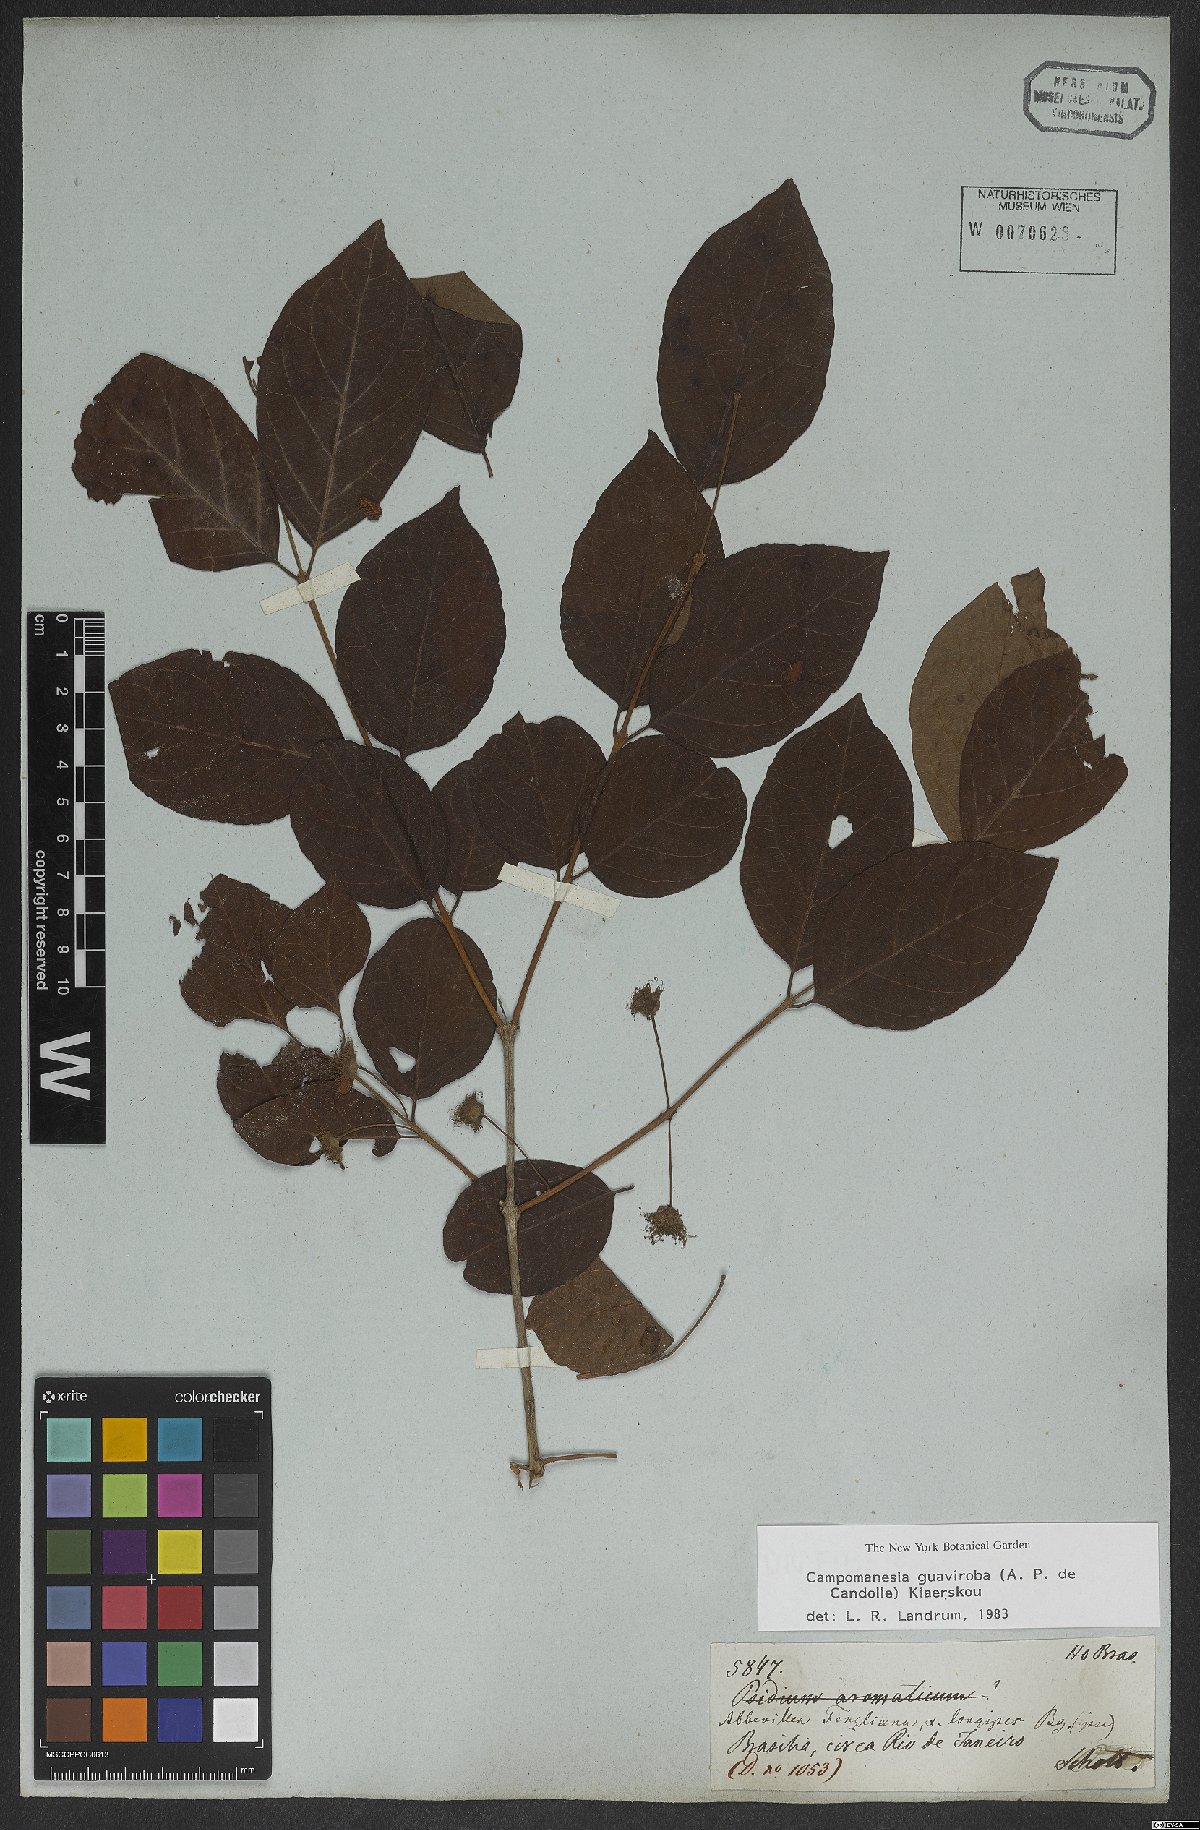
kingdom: Plantae
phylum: Tracheophyta
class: Magnoliopsida
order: Myrtales
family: Myrtaceae
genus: Campomanesia
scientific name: Campomanesia guaviroba
